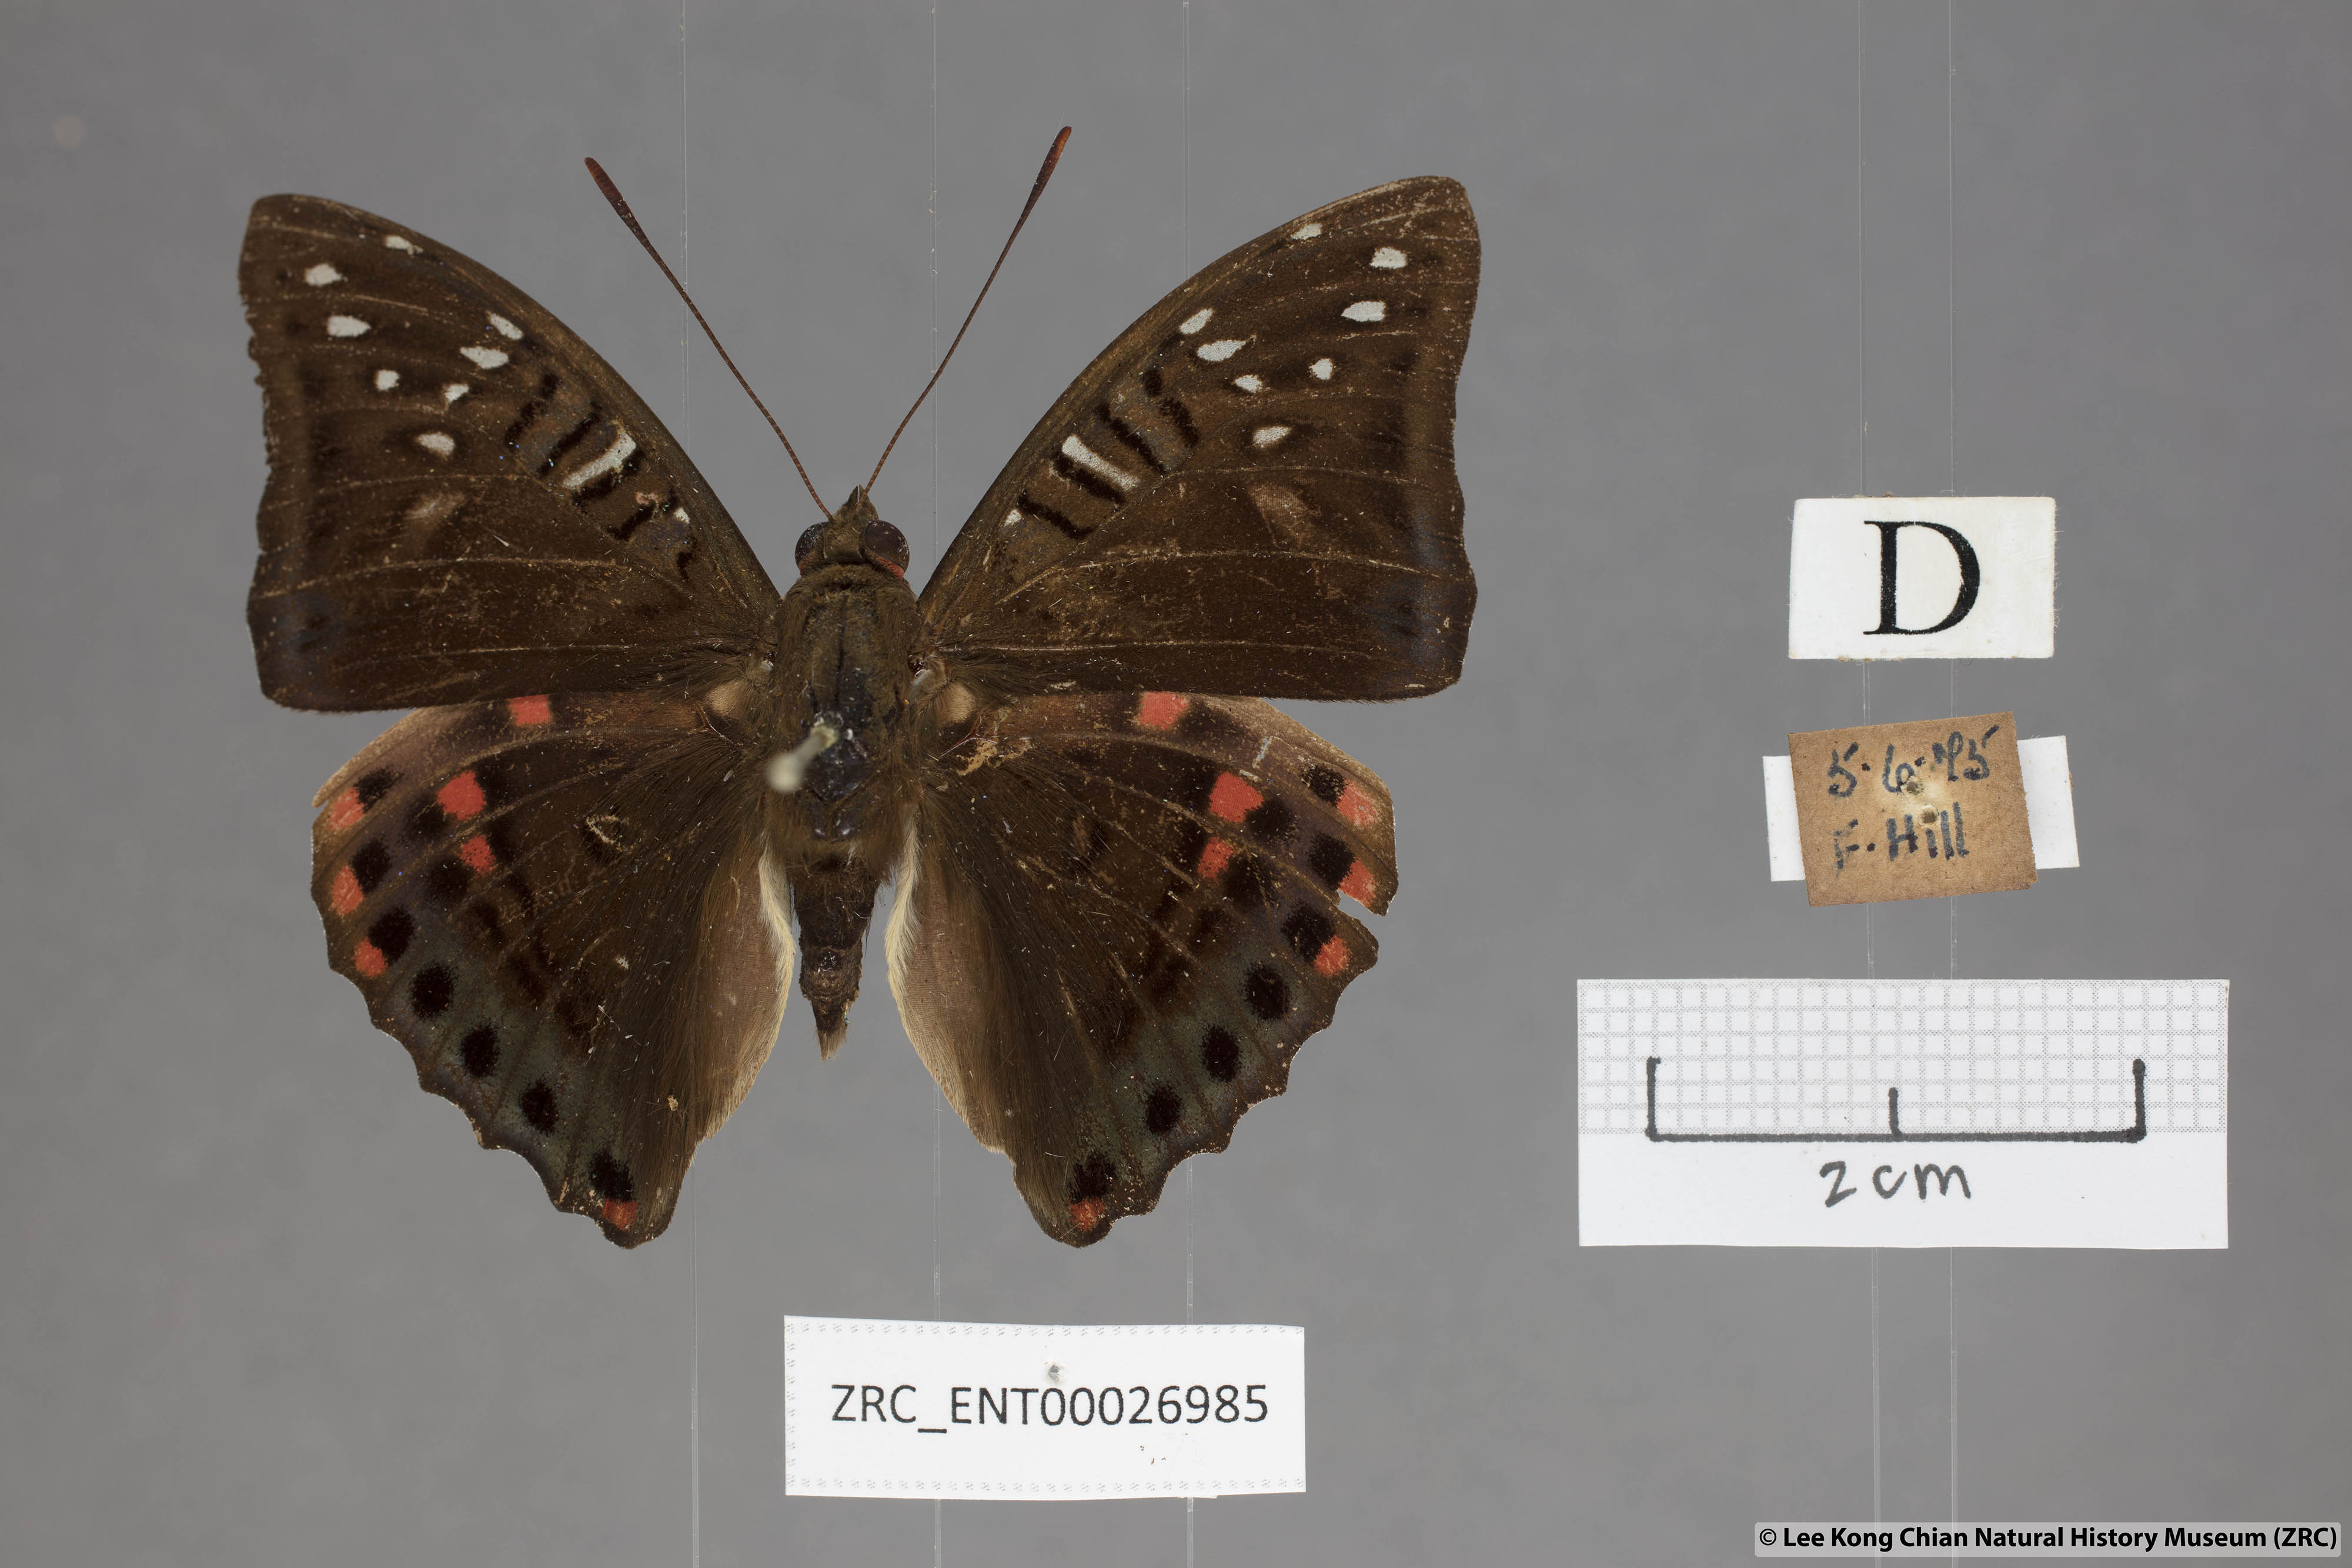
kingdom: Animalia
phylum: Arthropoda
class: Insecta
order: Lepidoptera
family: Nymphalidae
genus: Euthalia
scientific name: Euthalia whiteheadi
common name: Tri-coloured baron
